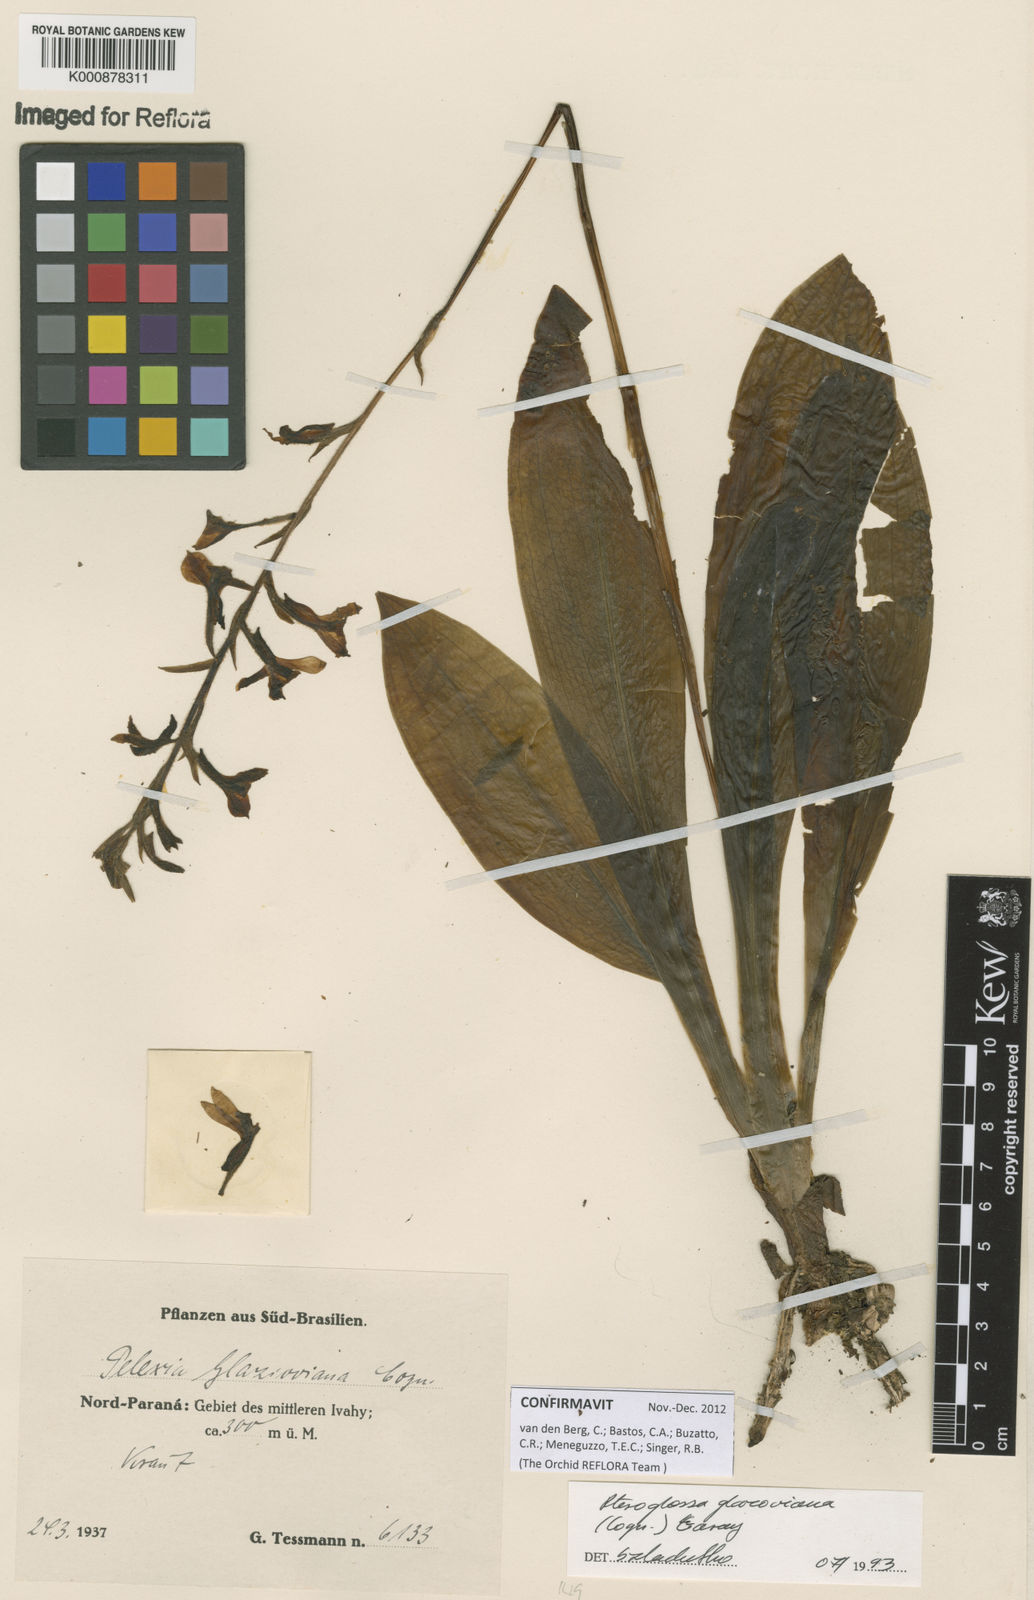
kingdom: Plantae
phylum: Tracheophyta
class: Liliopsida
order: Asparagales
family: Orchidaceae
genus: Pteroglossa
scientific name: Pteroglossa glazioviana
